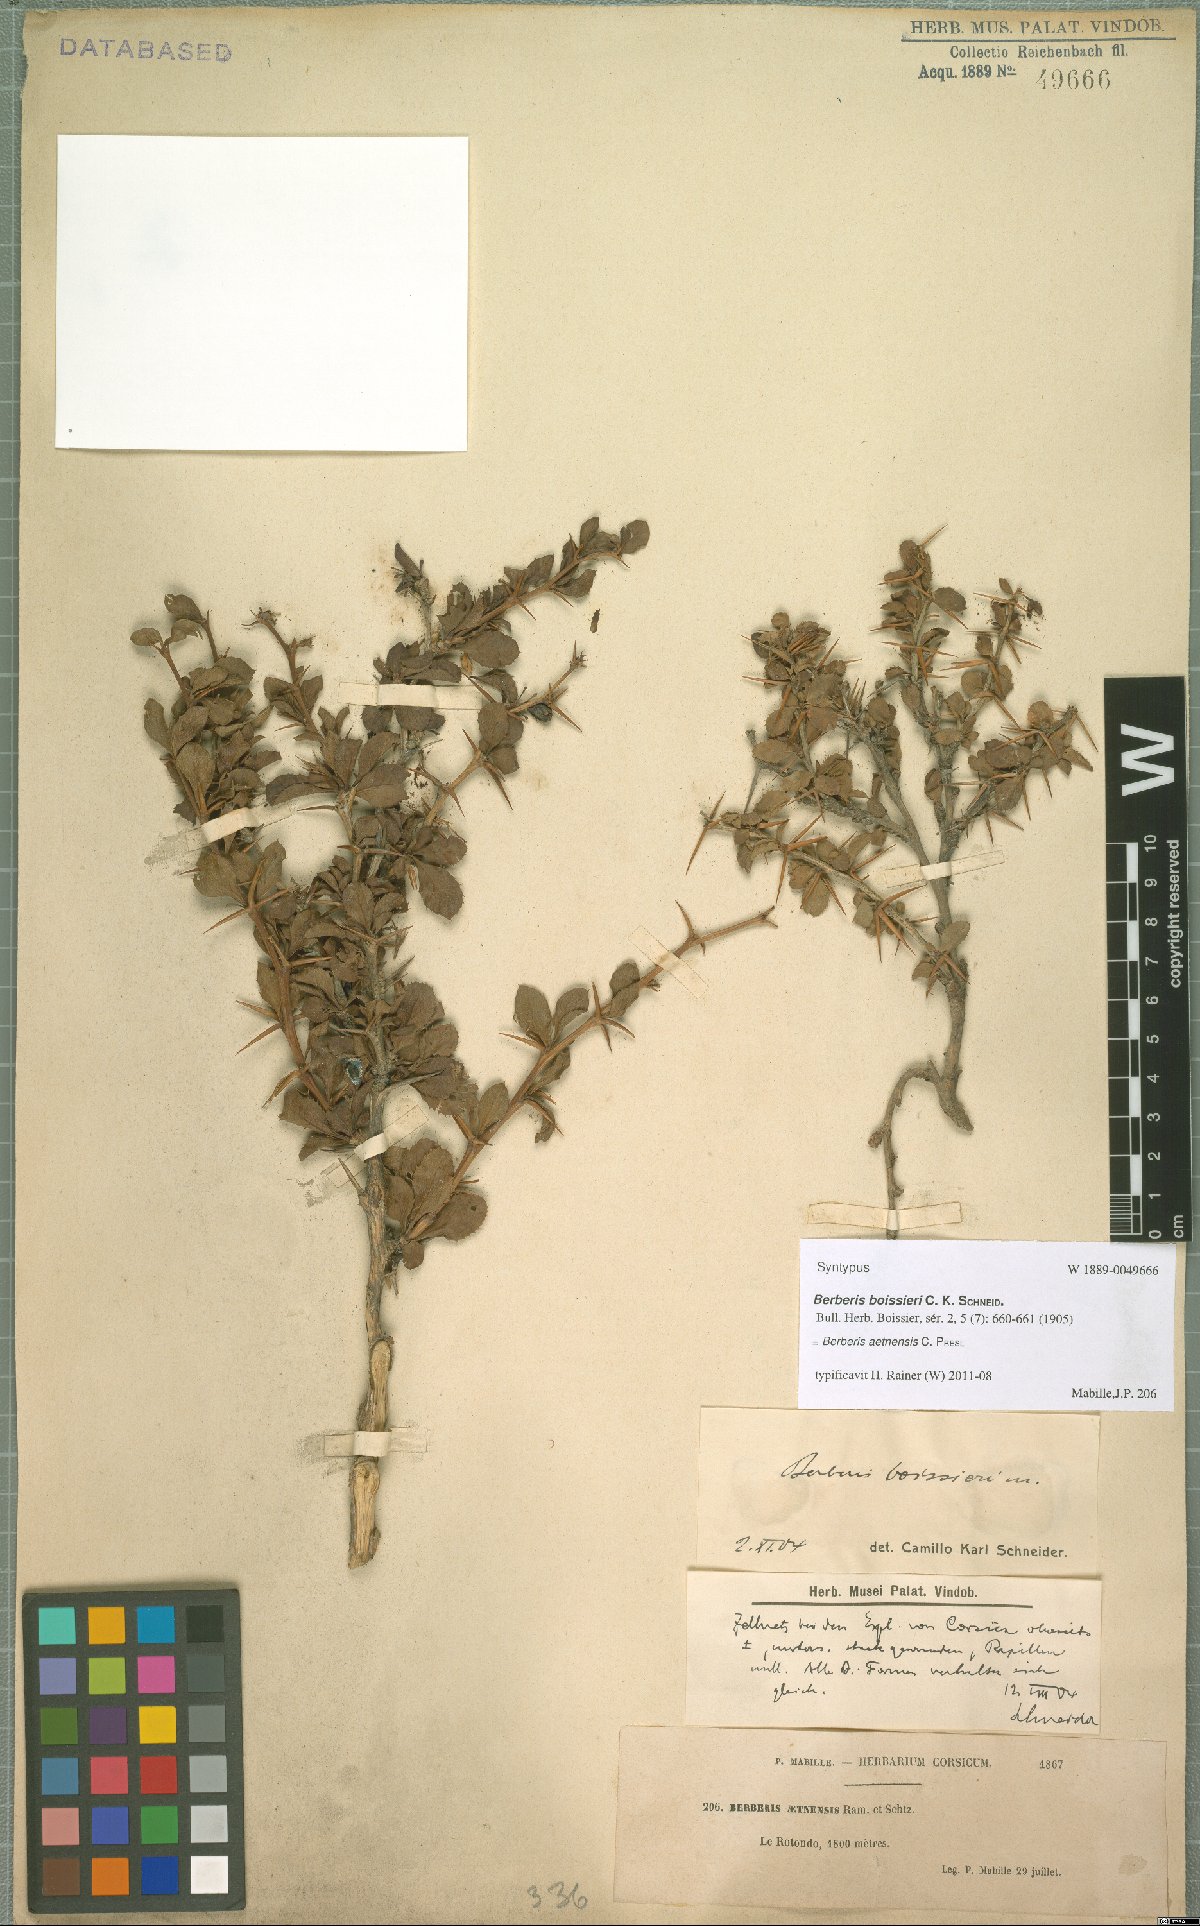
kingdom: Plantae
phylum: Tracheophyta
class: Magnoliopsida
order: Ranunculales
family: Berberidaceae
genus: Berberis
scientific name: Berberis aetnensis
